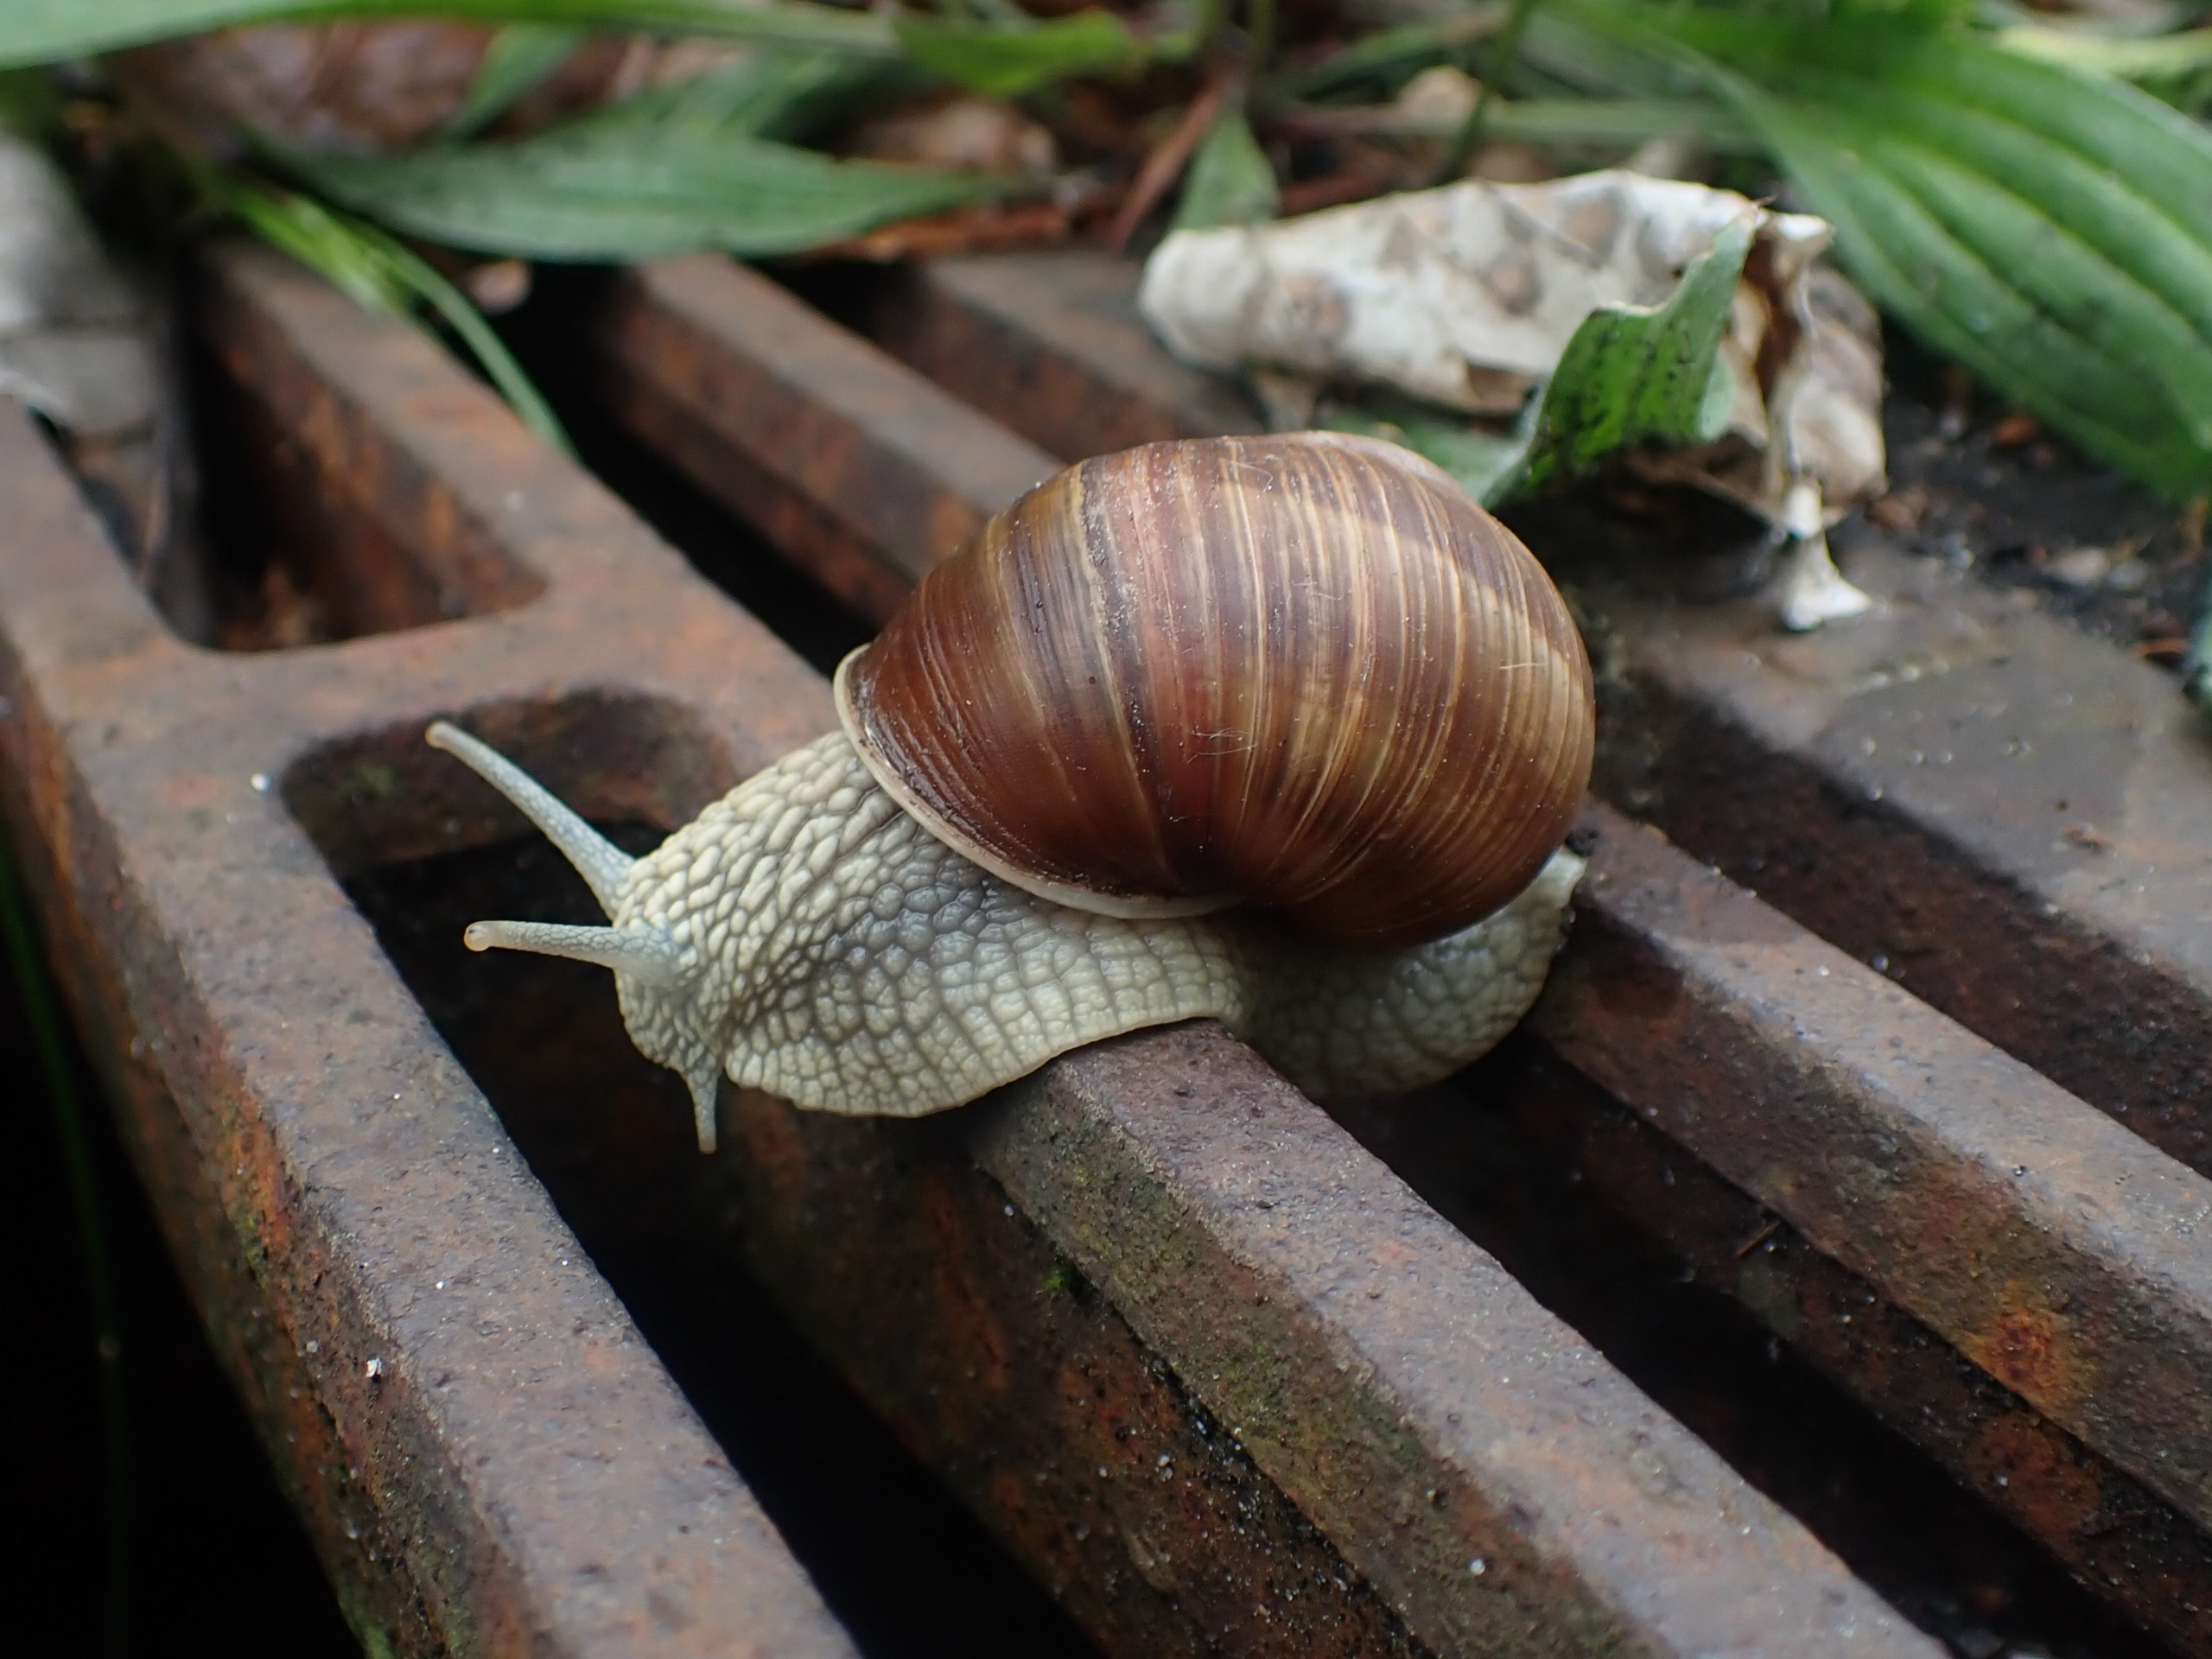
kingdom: Animalia
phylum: Mollusca
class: Gastropoda
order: Stylommatophora
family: Helicidae
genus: Helix
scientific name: Helix pomatia
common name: Vinbjergsnegl
